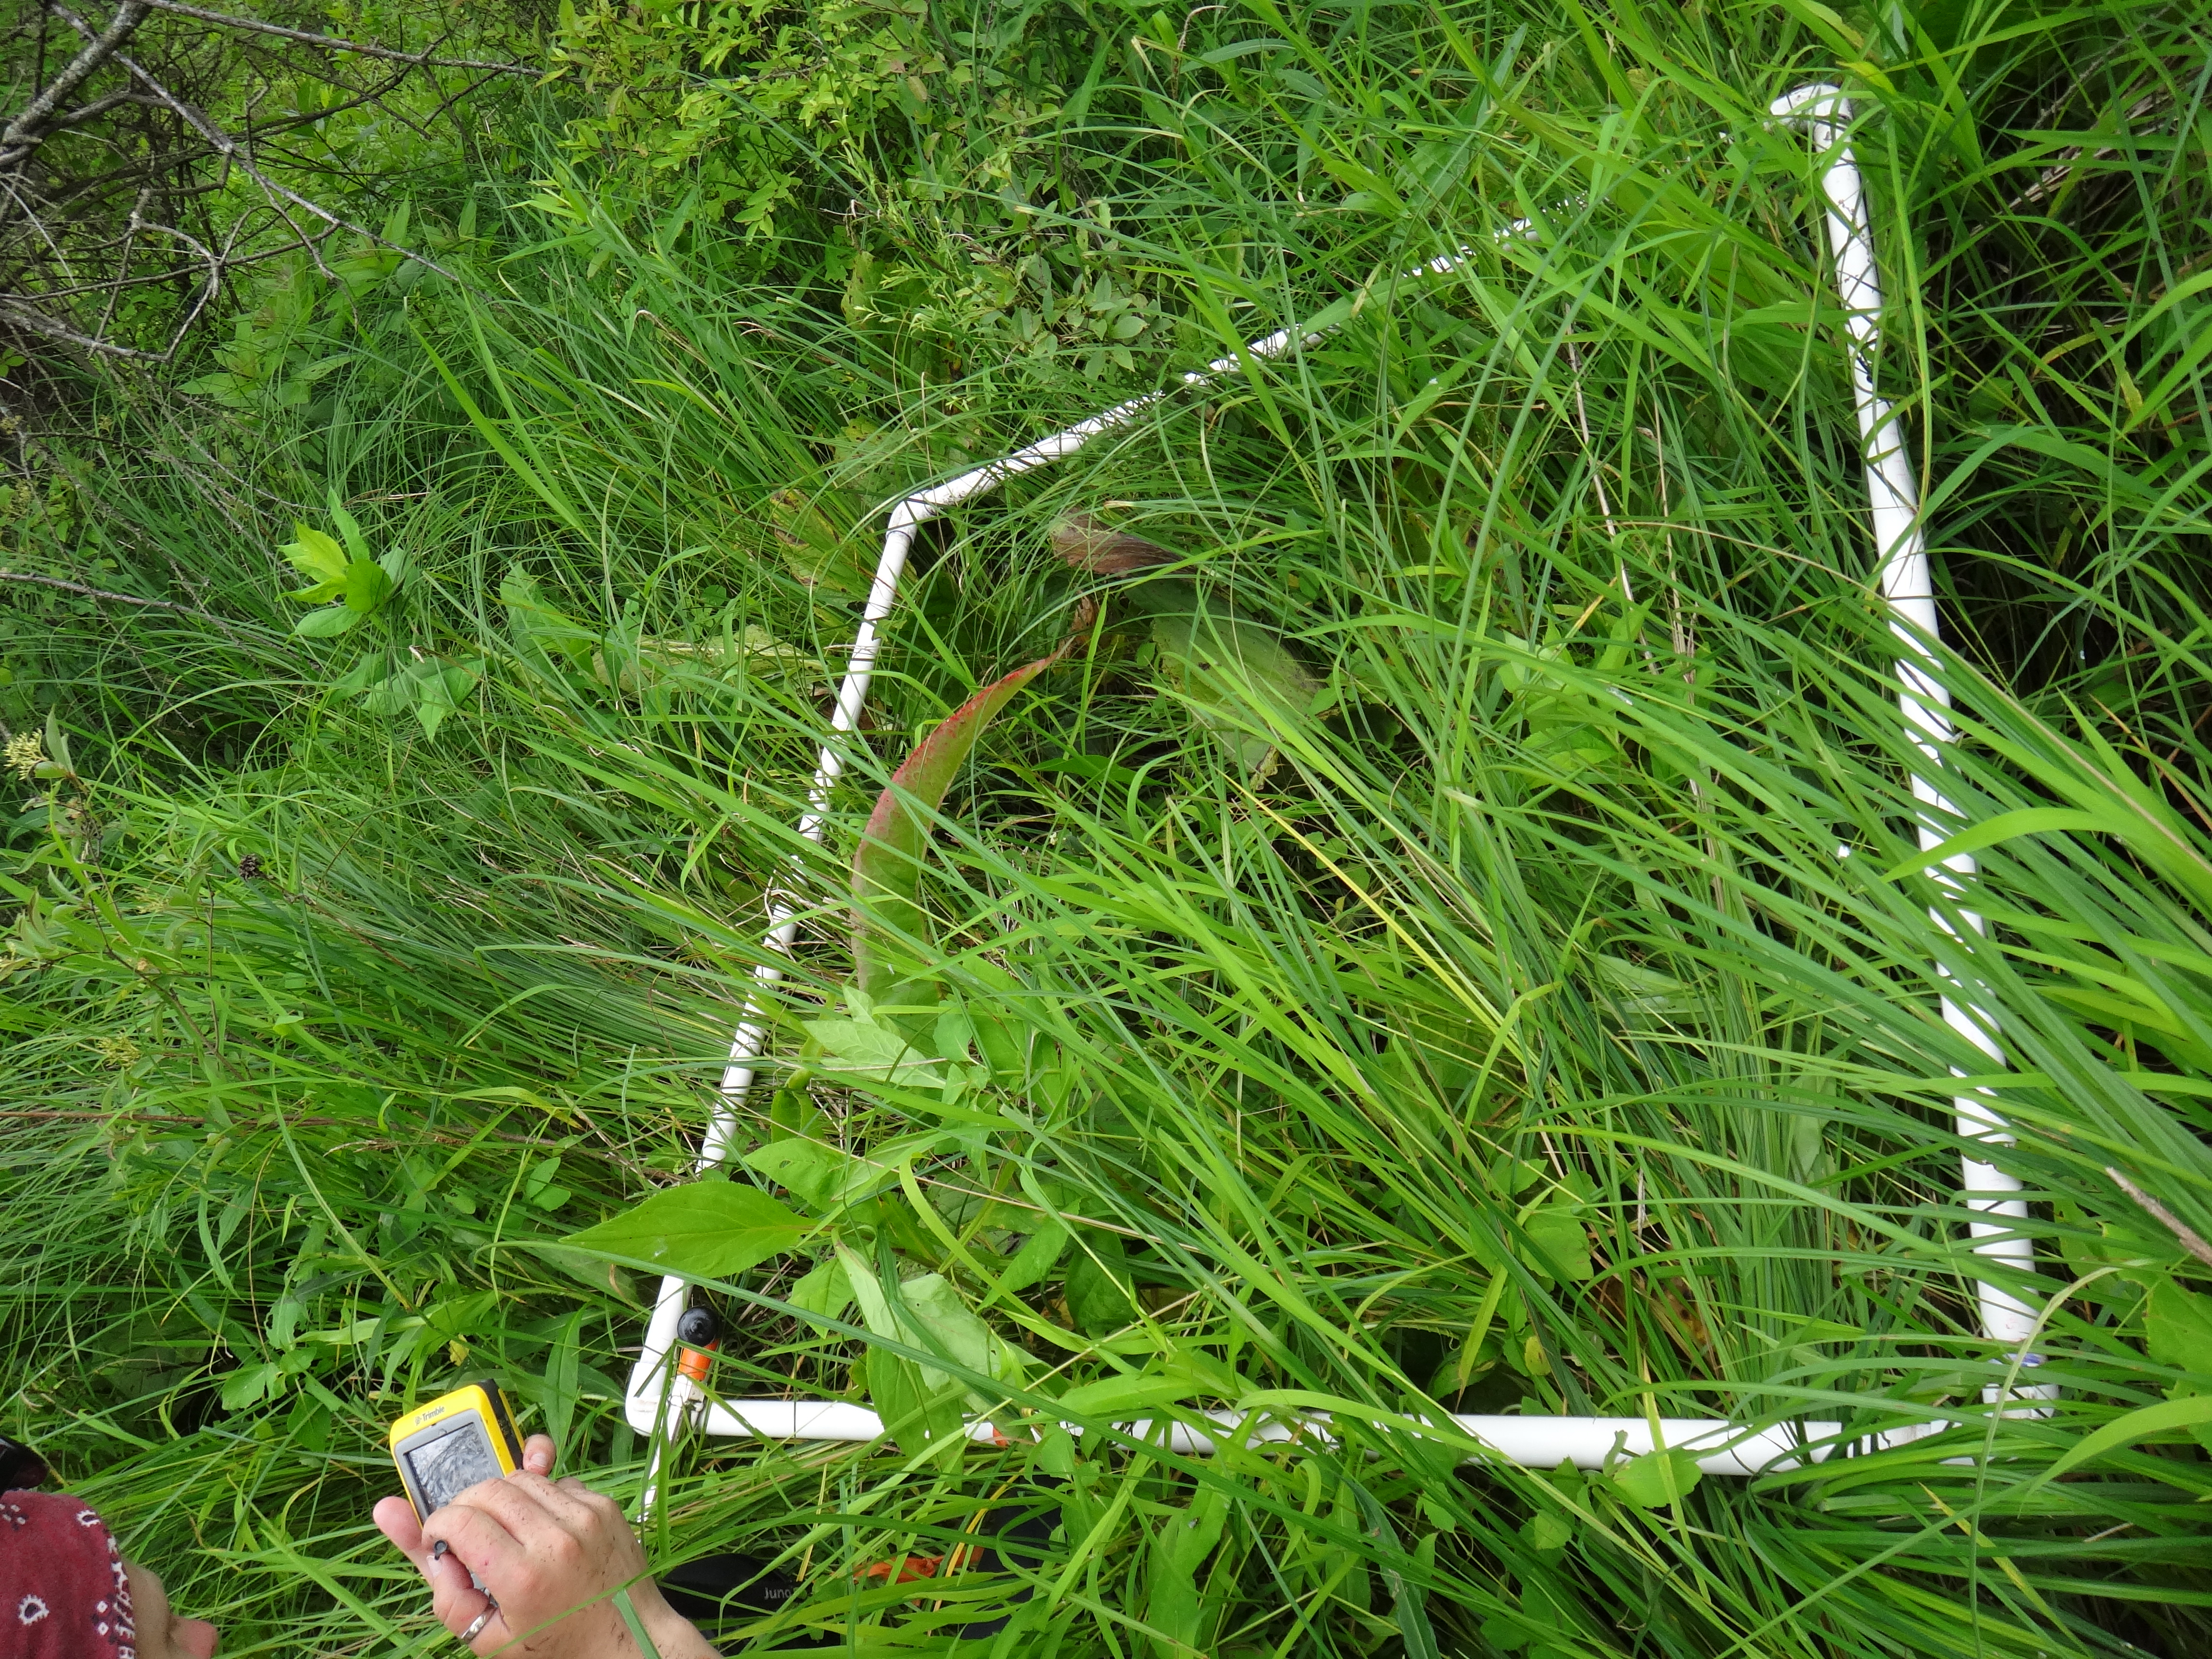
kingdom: Plantae
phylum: Tracheophyta
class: Liliopsida
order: Poales
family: Poaceae
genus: Phalaris
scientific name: Phalaris arundinacea
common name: Reed canary-grass
